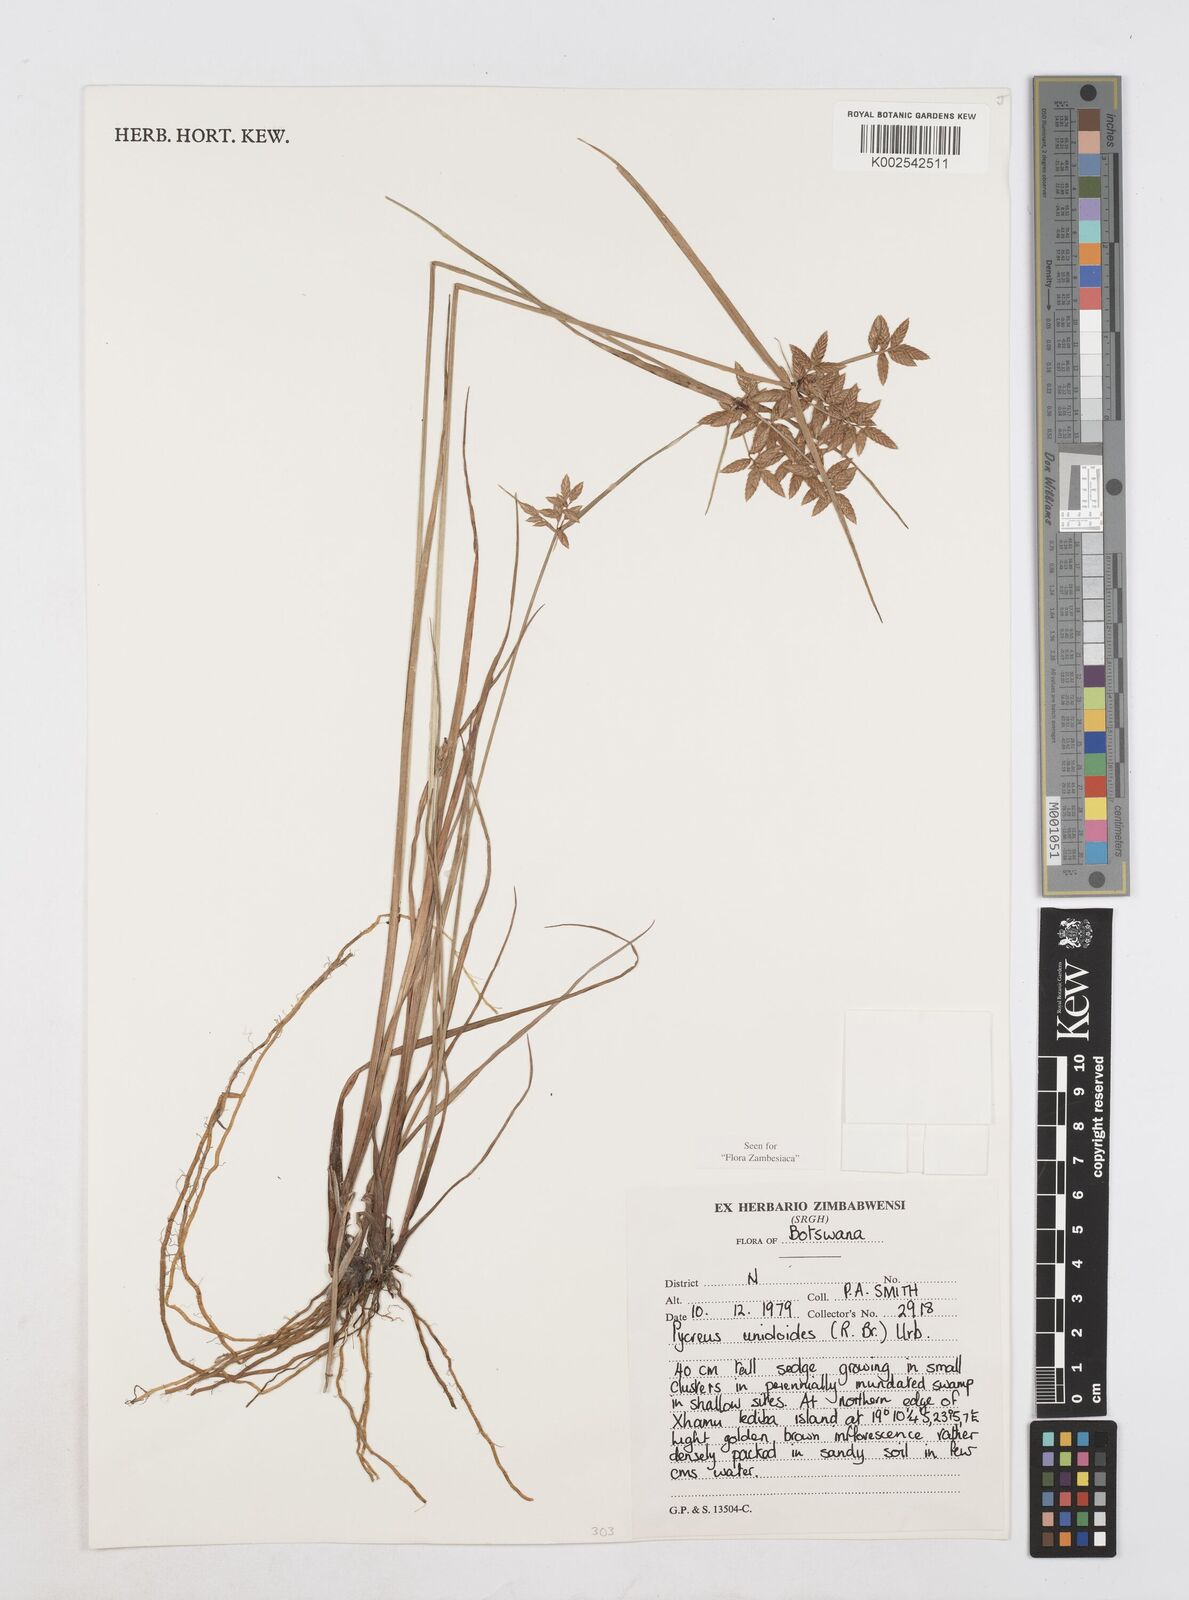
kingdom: Plantae
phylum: Tracheophyta
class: Liliopsida
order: Poales
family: Cyperaceae
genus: Cyperus
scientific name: Cyperus unioloides
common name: Uniola flatsedge
